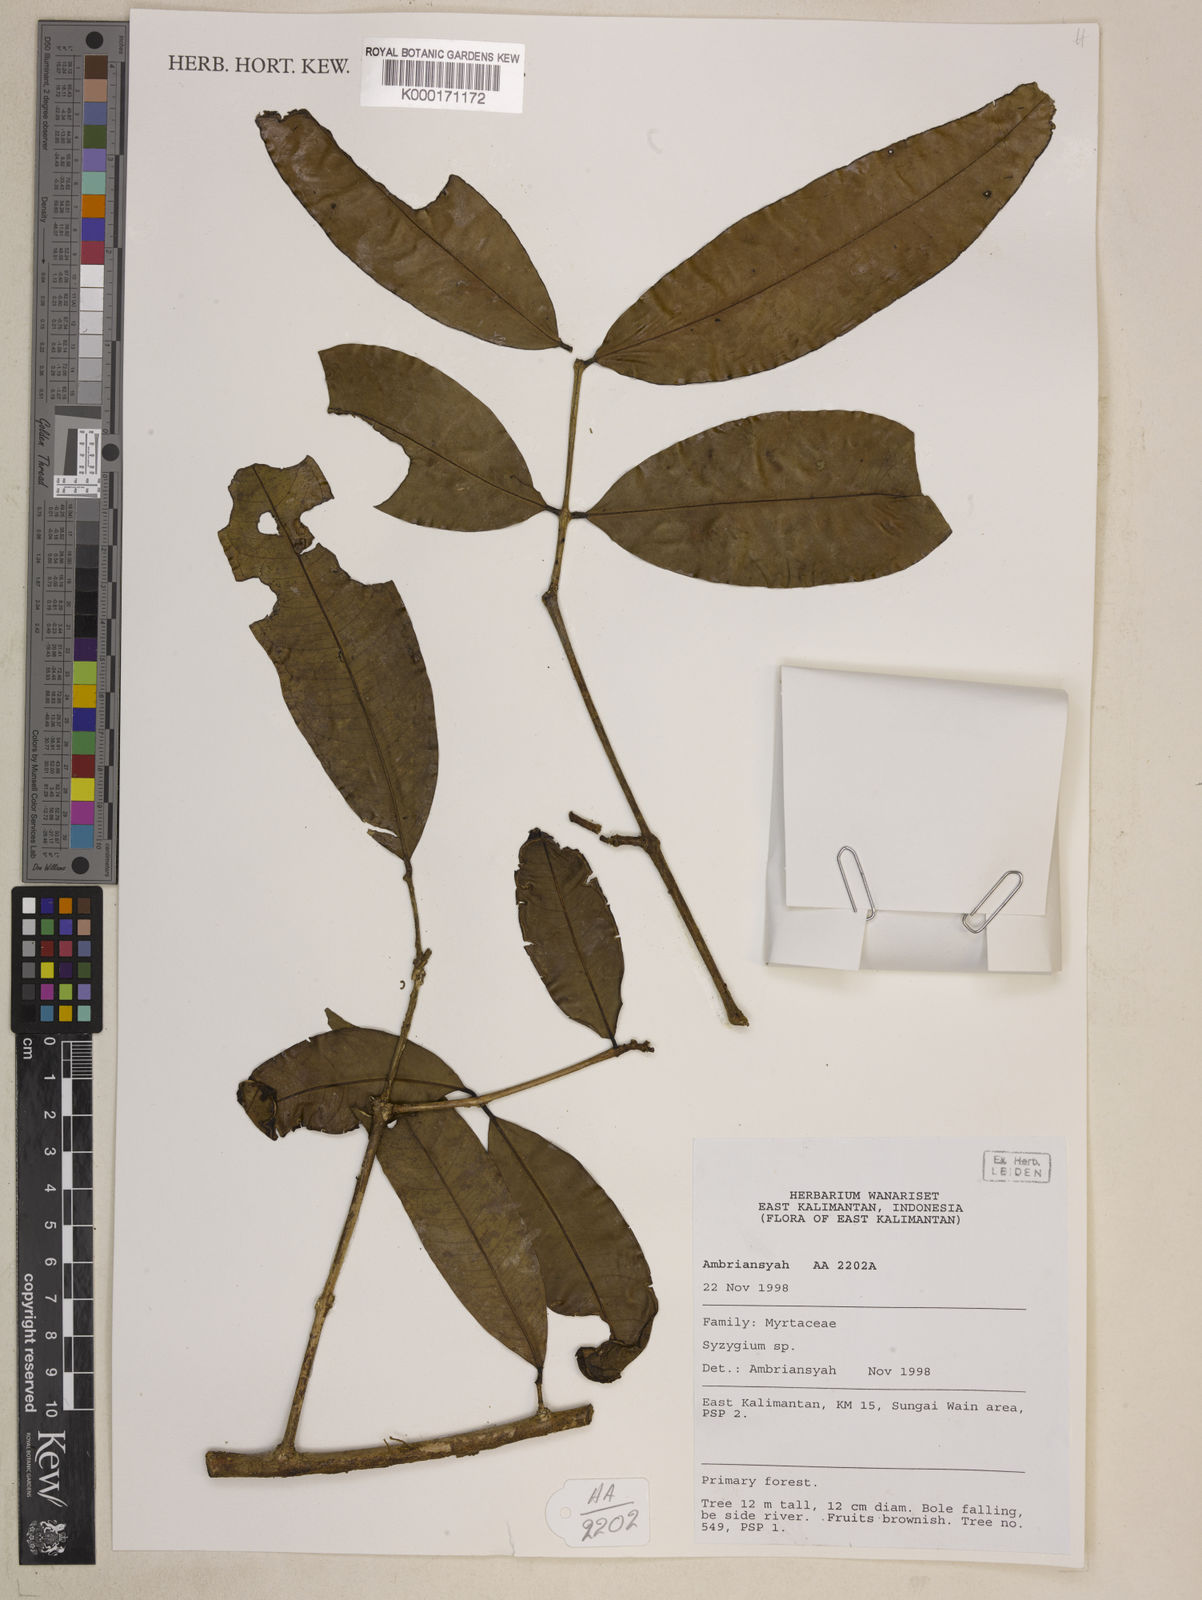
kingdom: Plantae
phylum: Tracheophyta
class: Magnoliopsida
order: Myrtales
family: Myrtaceae
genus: Syzygium
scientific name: Syzygium
